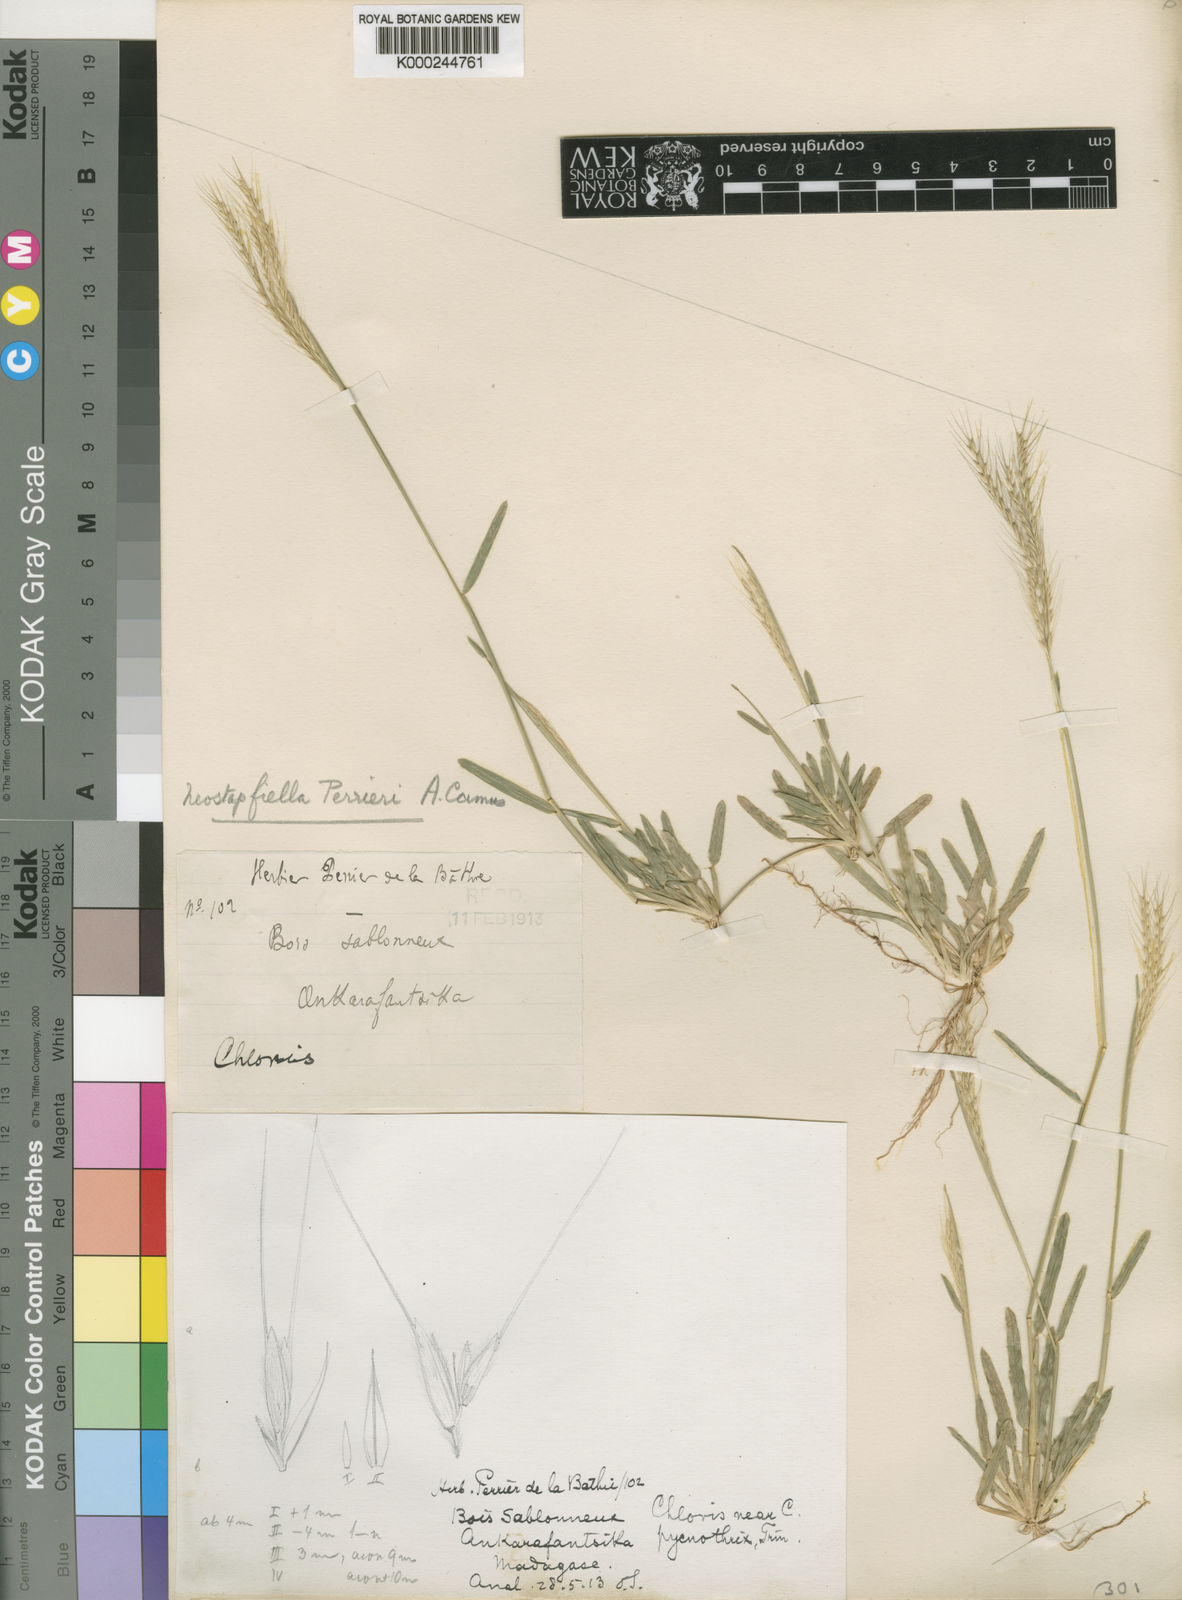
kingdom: Plantae
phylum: Tracheophyta
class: Liliopsida
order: Poales
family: Poaceae
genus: Neostapfiella
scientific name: Neostapfiella perrieri
